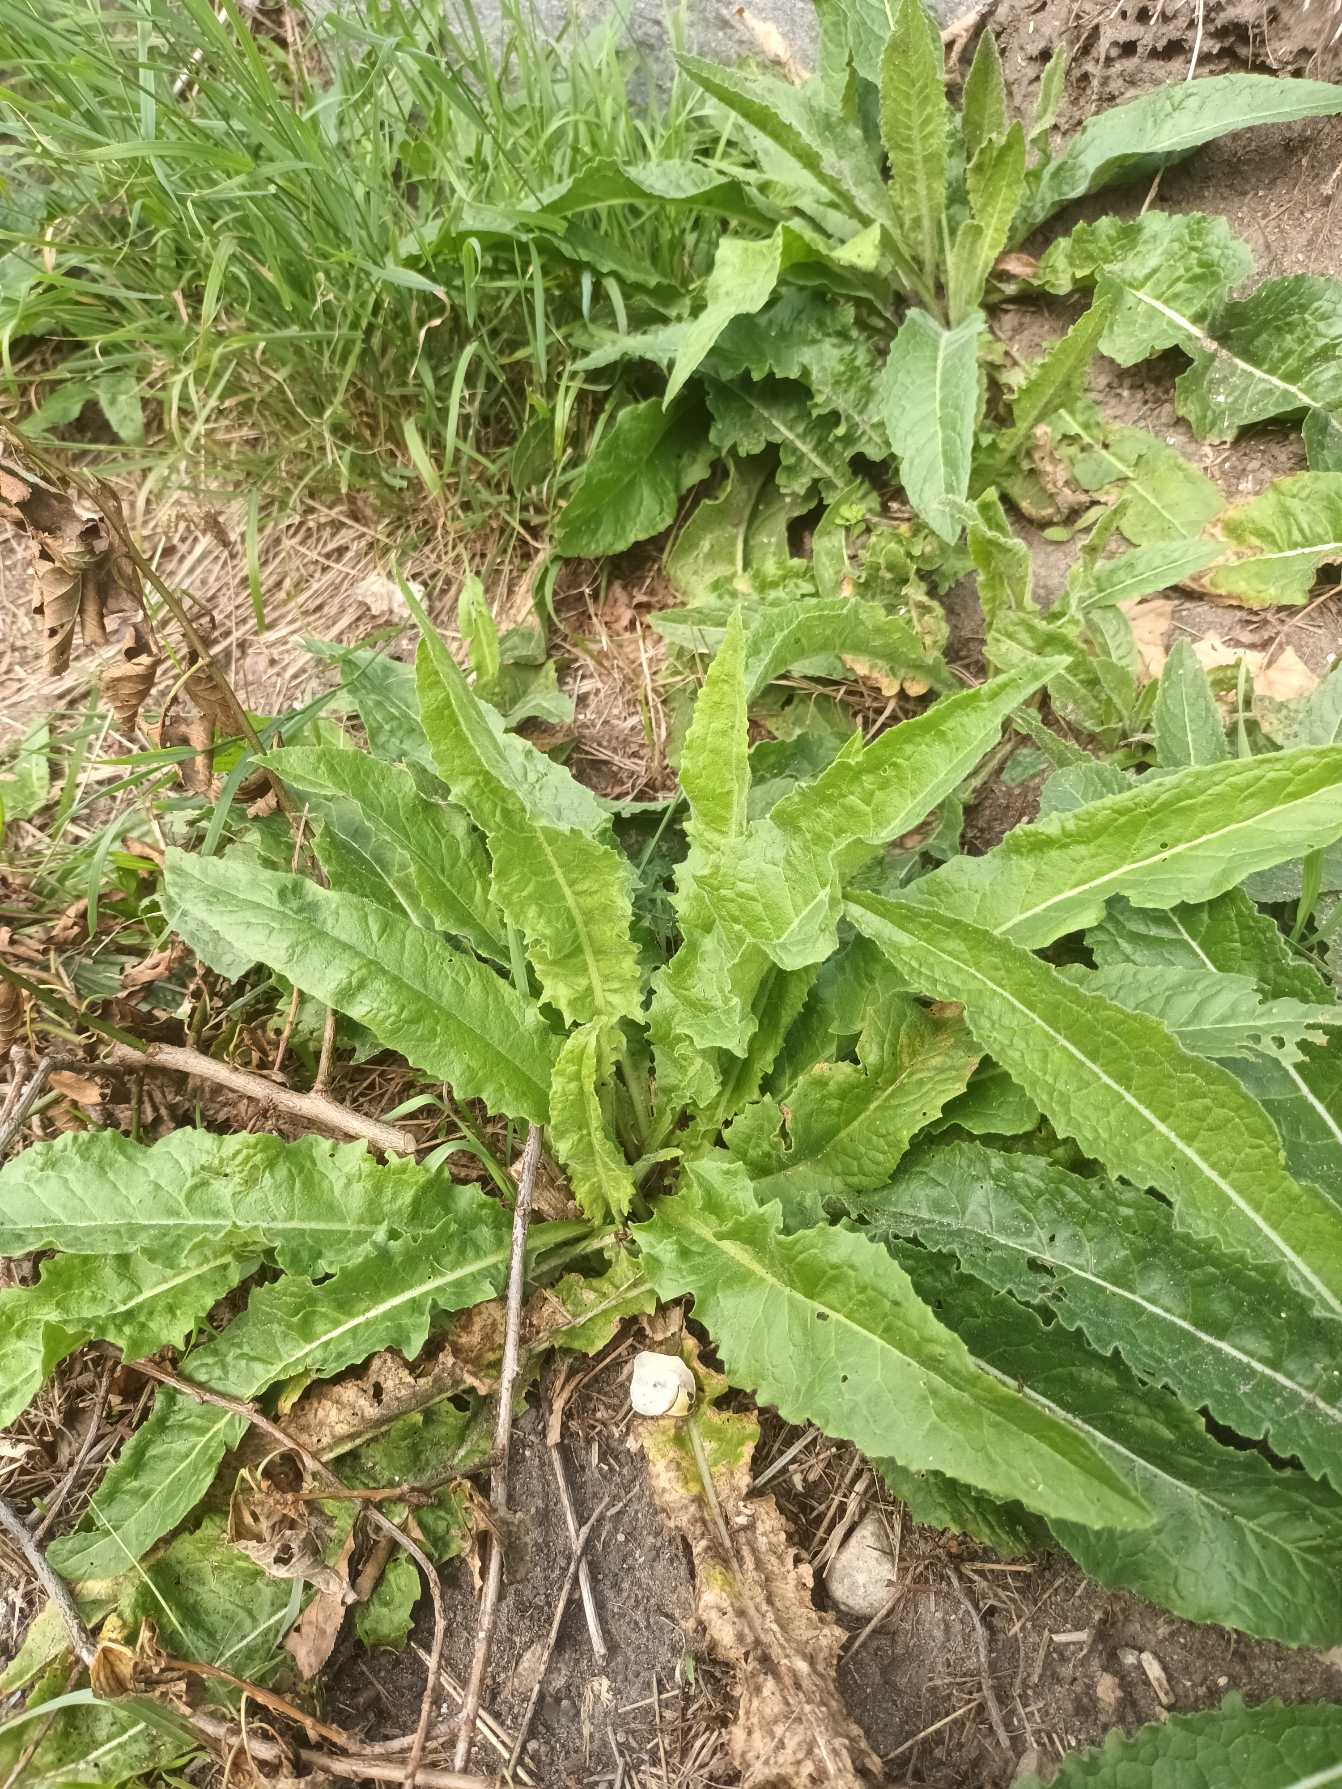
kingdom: Plantae
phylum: Tracheophyta
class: Magnoliopsida
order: Brassicales
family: Brassicaceae
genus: Bunias
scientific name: Bunias orientalis
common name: Takkeklap
